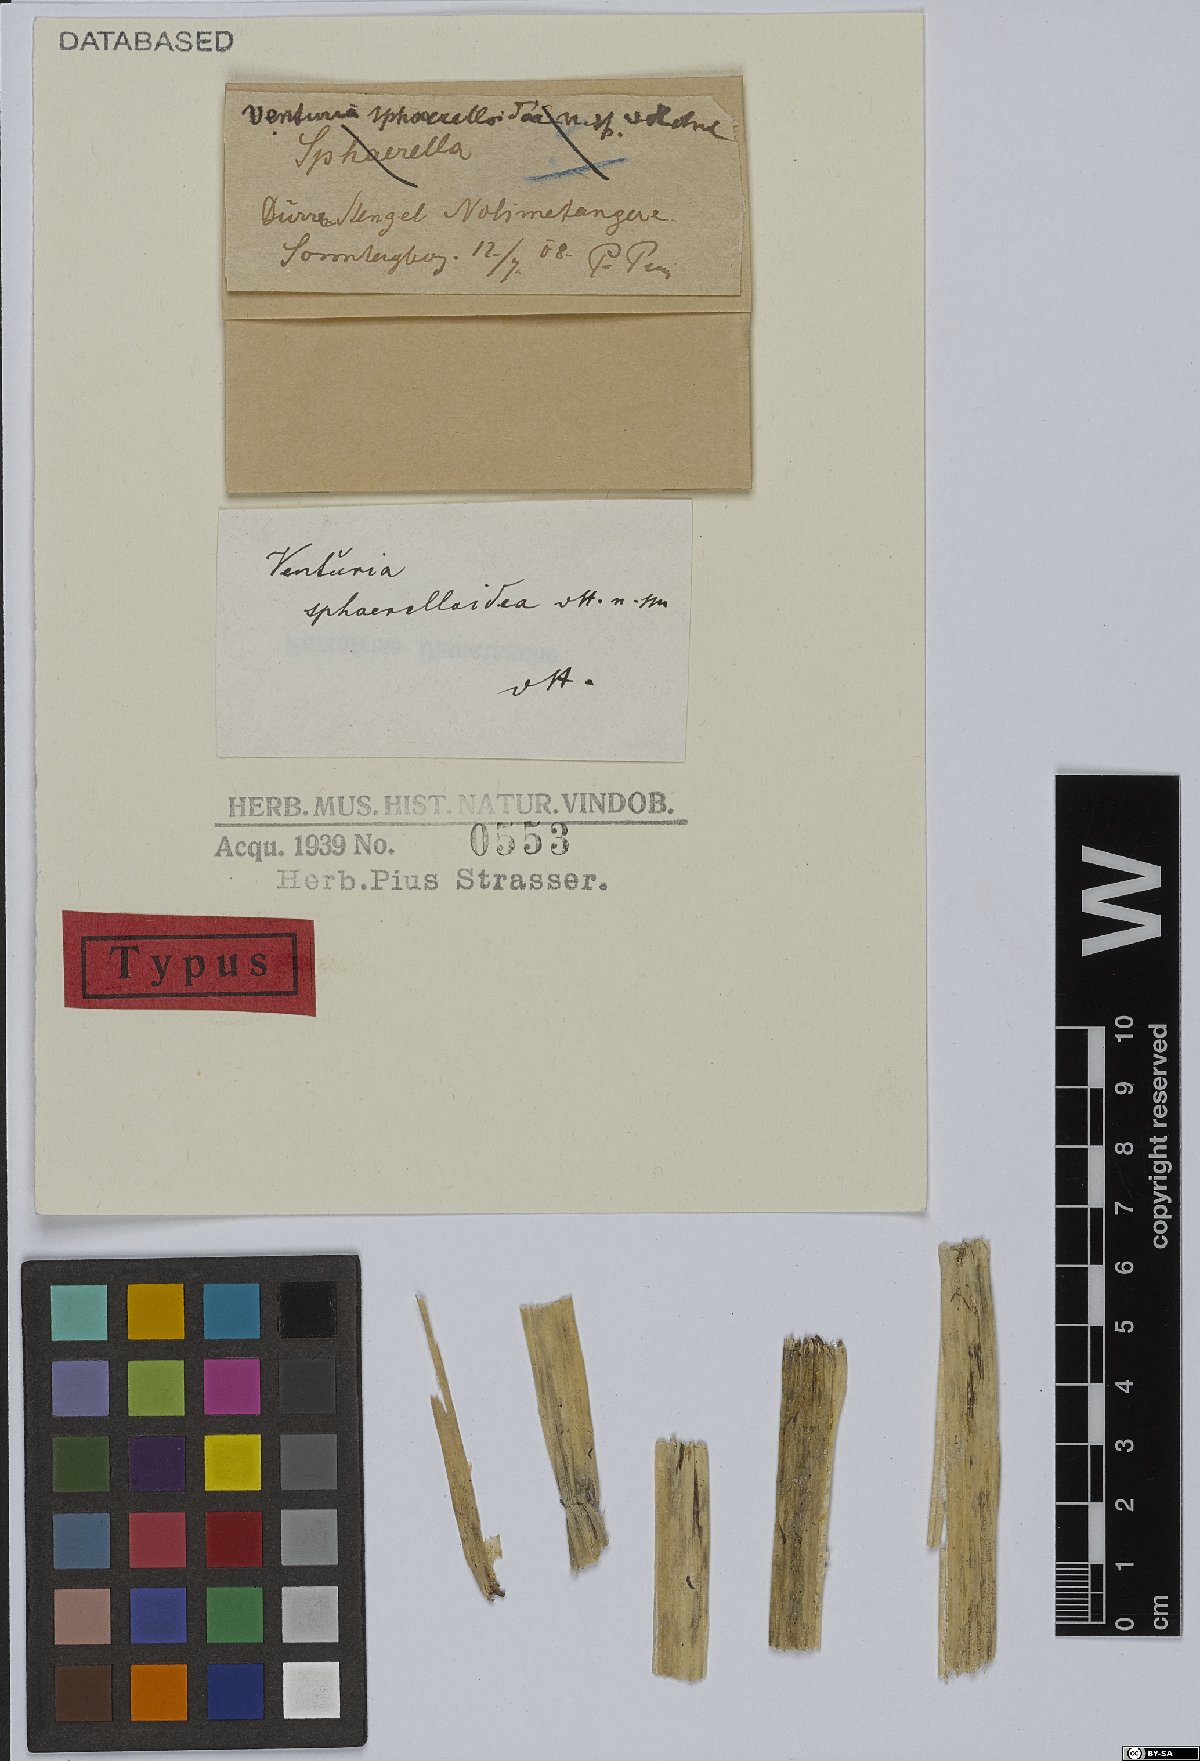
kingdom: Fungi
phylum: Ascomycota
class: Sordariomycetes
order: Phomatosporales
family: Phomatosporaceae
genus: Phomatosporopsis
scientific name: Phomatosporopsis sphaerelloidea
